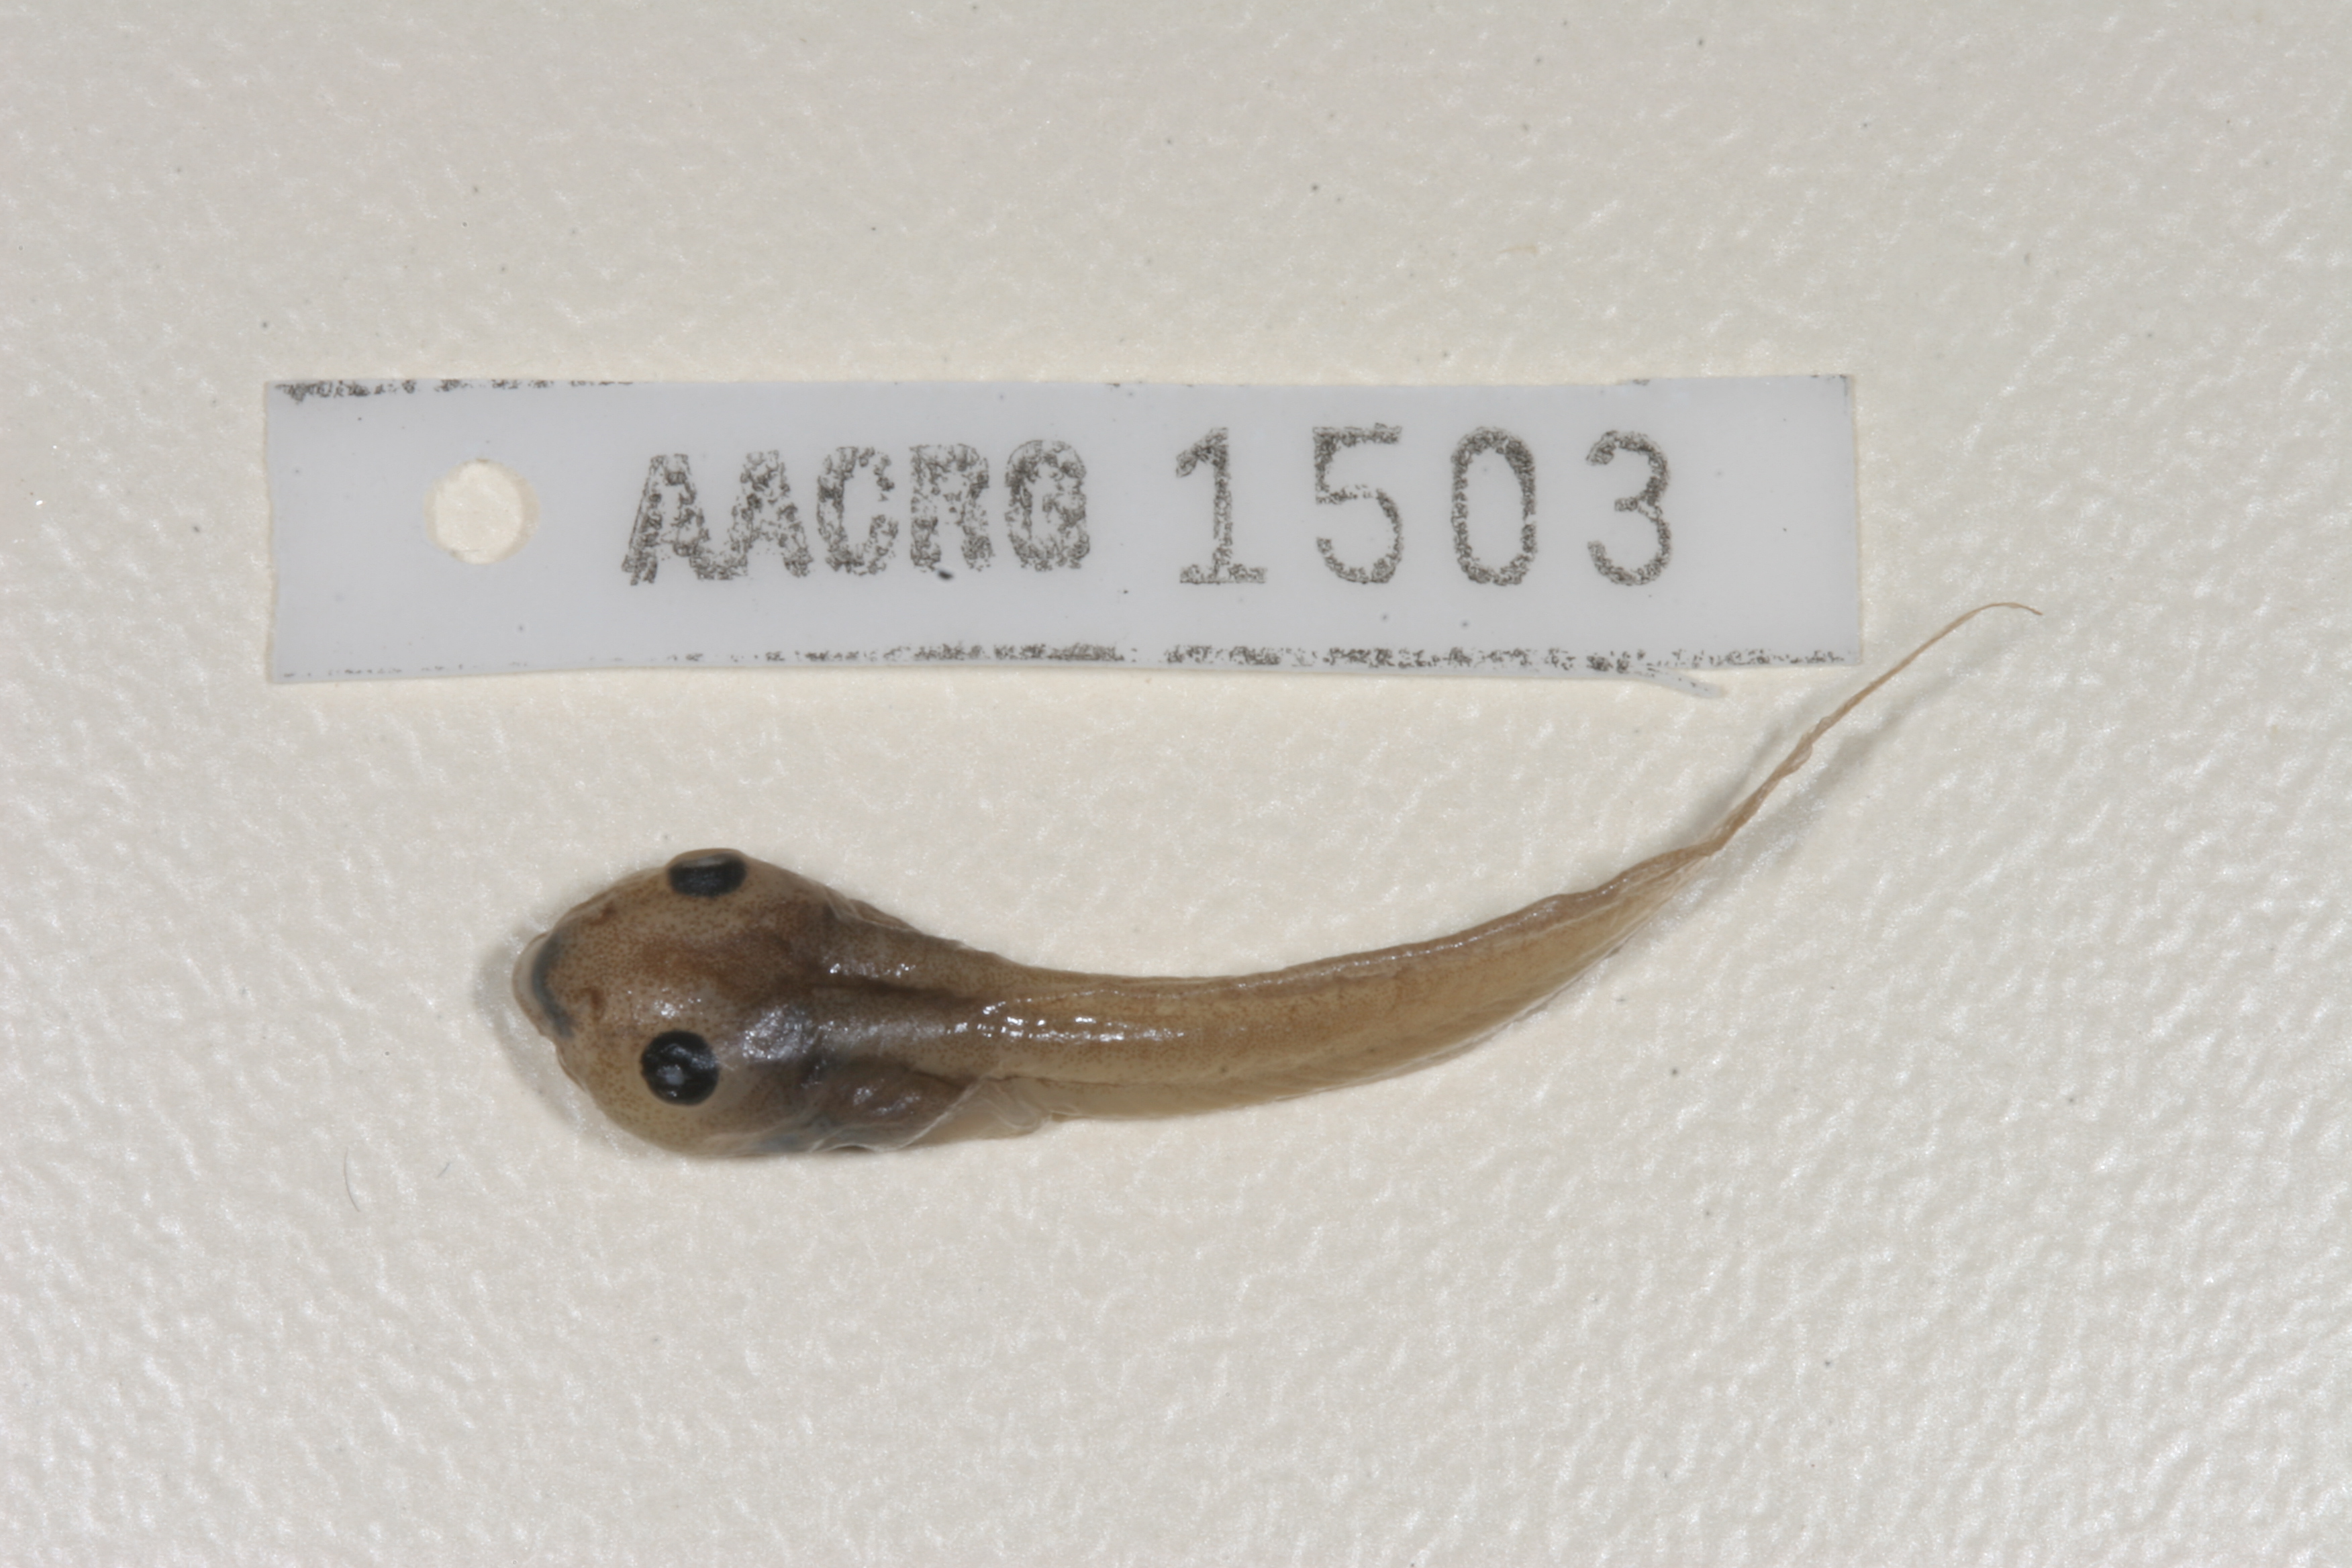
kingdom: Animalia
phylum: Chordata
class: Amphibia
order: Anura
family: Ptychadenidae
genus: Hildebrandtia
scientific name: Hildebrandtia ornata
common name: Ornate frog
